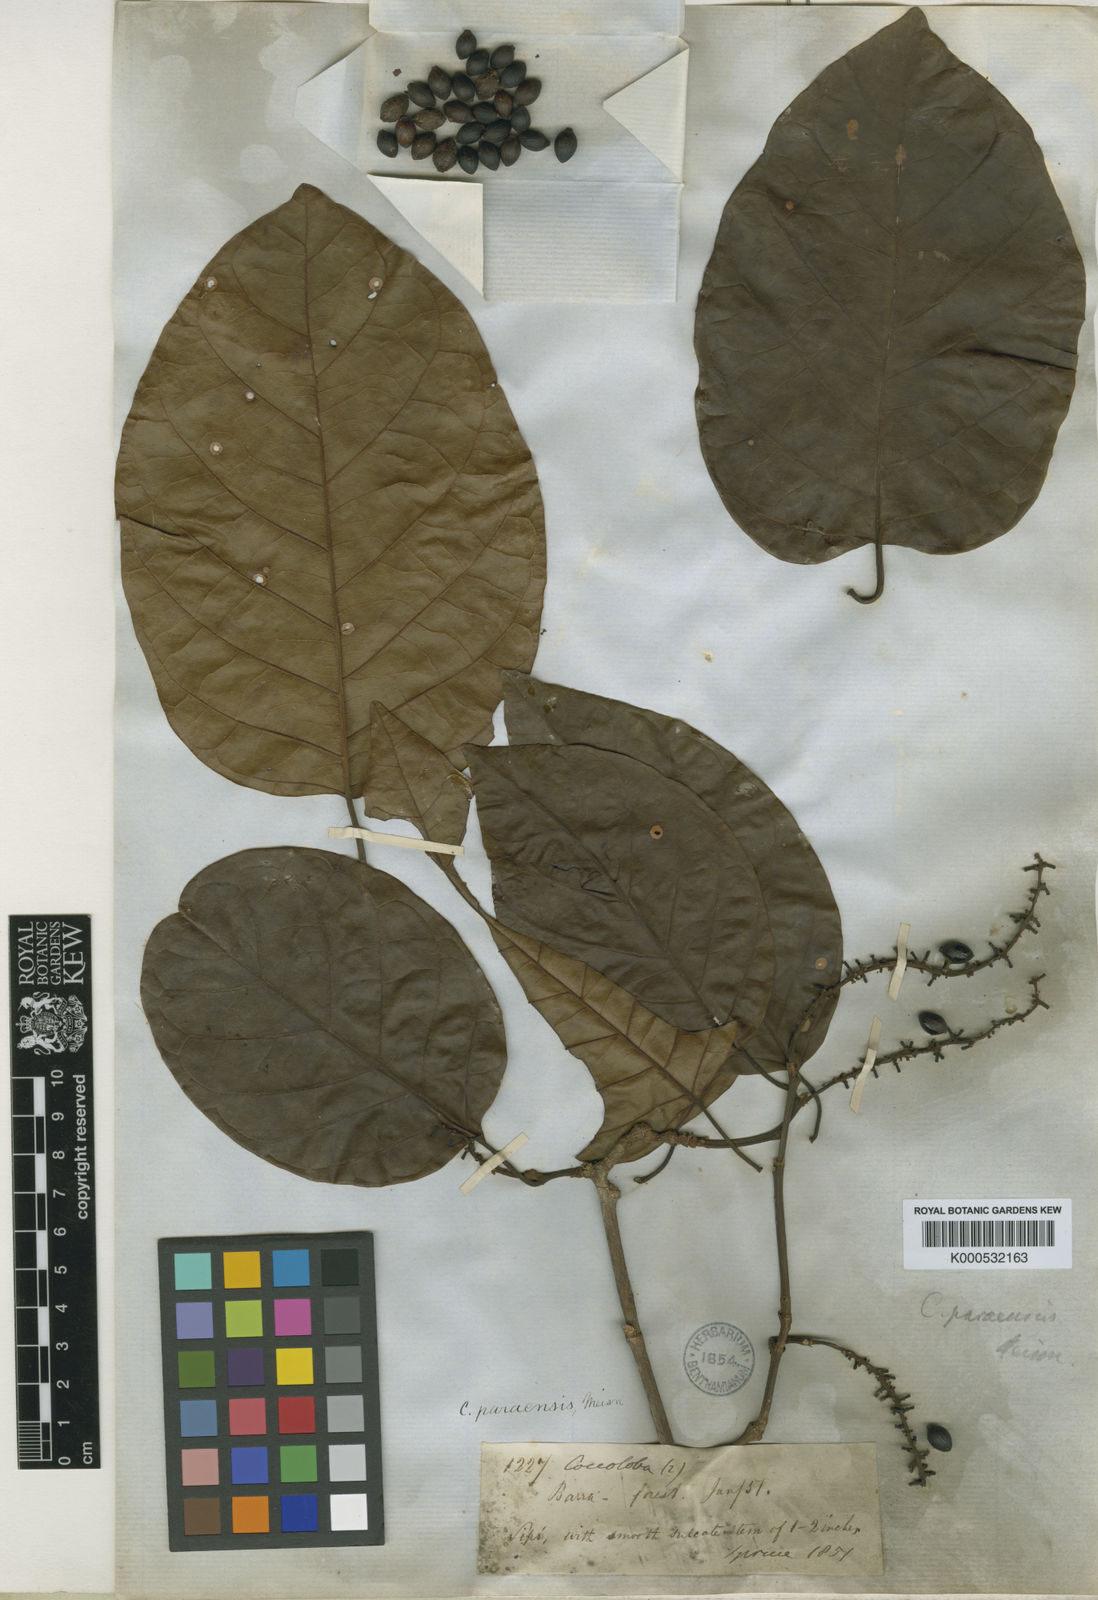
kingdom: Plantae
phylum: Tracheophyta
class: Magnoliopsida
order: Caryophyllales
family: Polygonaceae
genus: Coccoloba
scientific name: Coccoloba paraensis
